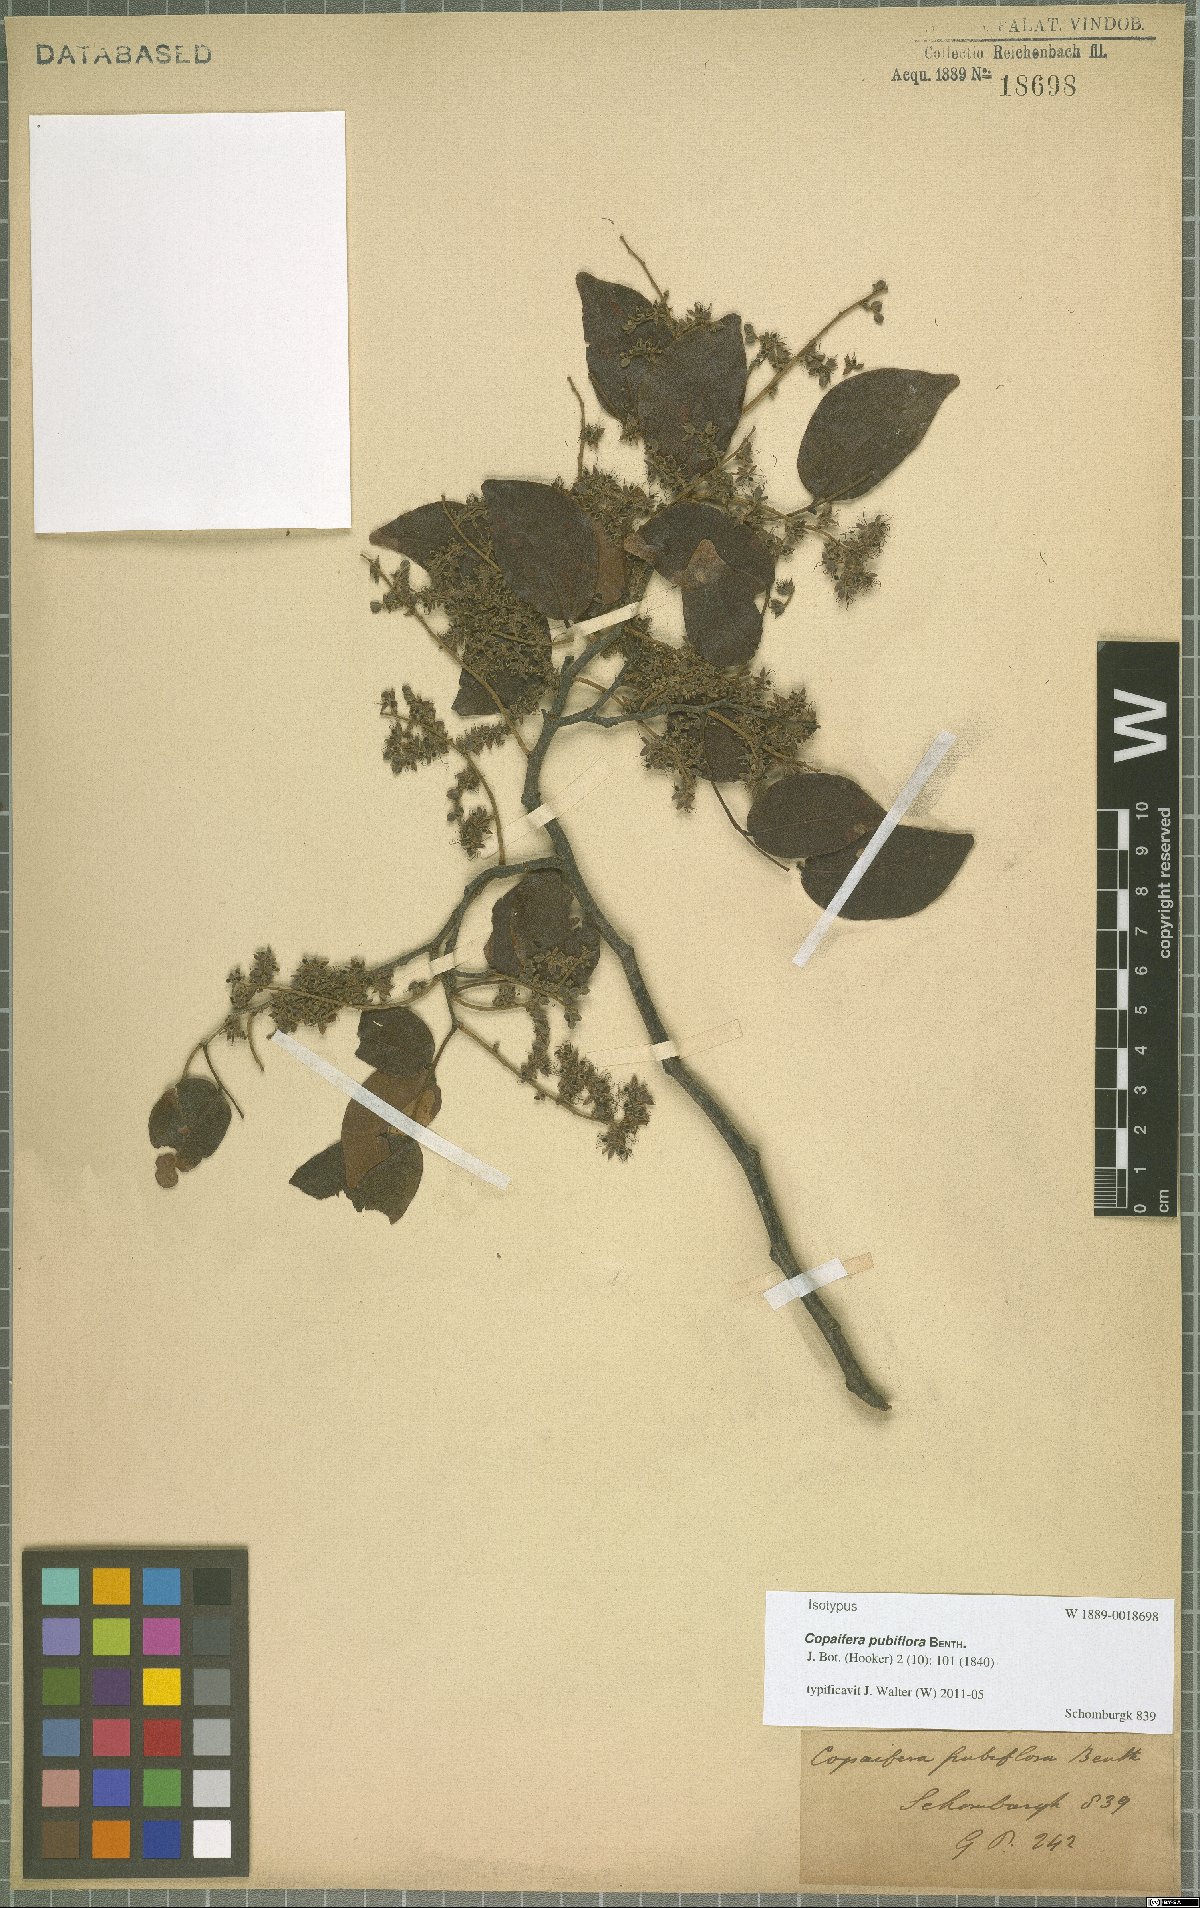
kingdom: Plantae
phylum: Tracheophyta
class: Magnoliopsida
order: Fabales
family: Fabaceae
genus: Copaifera
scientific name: Copaifera pubiflora
